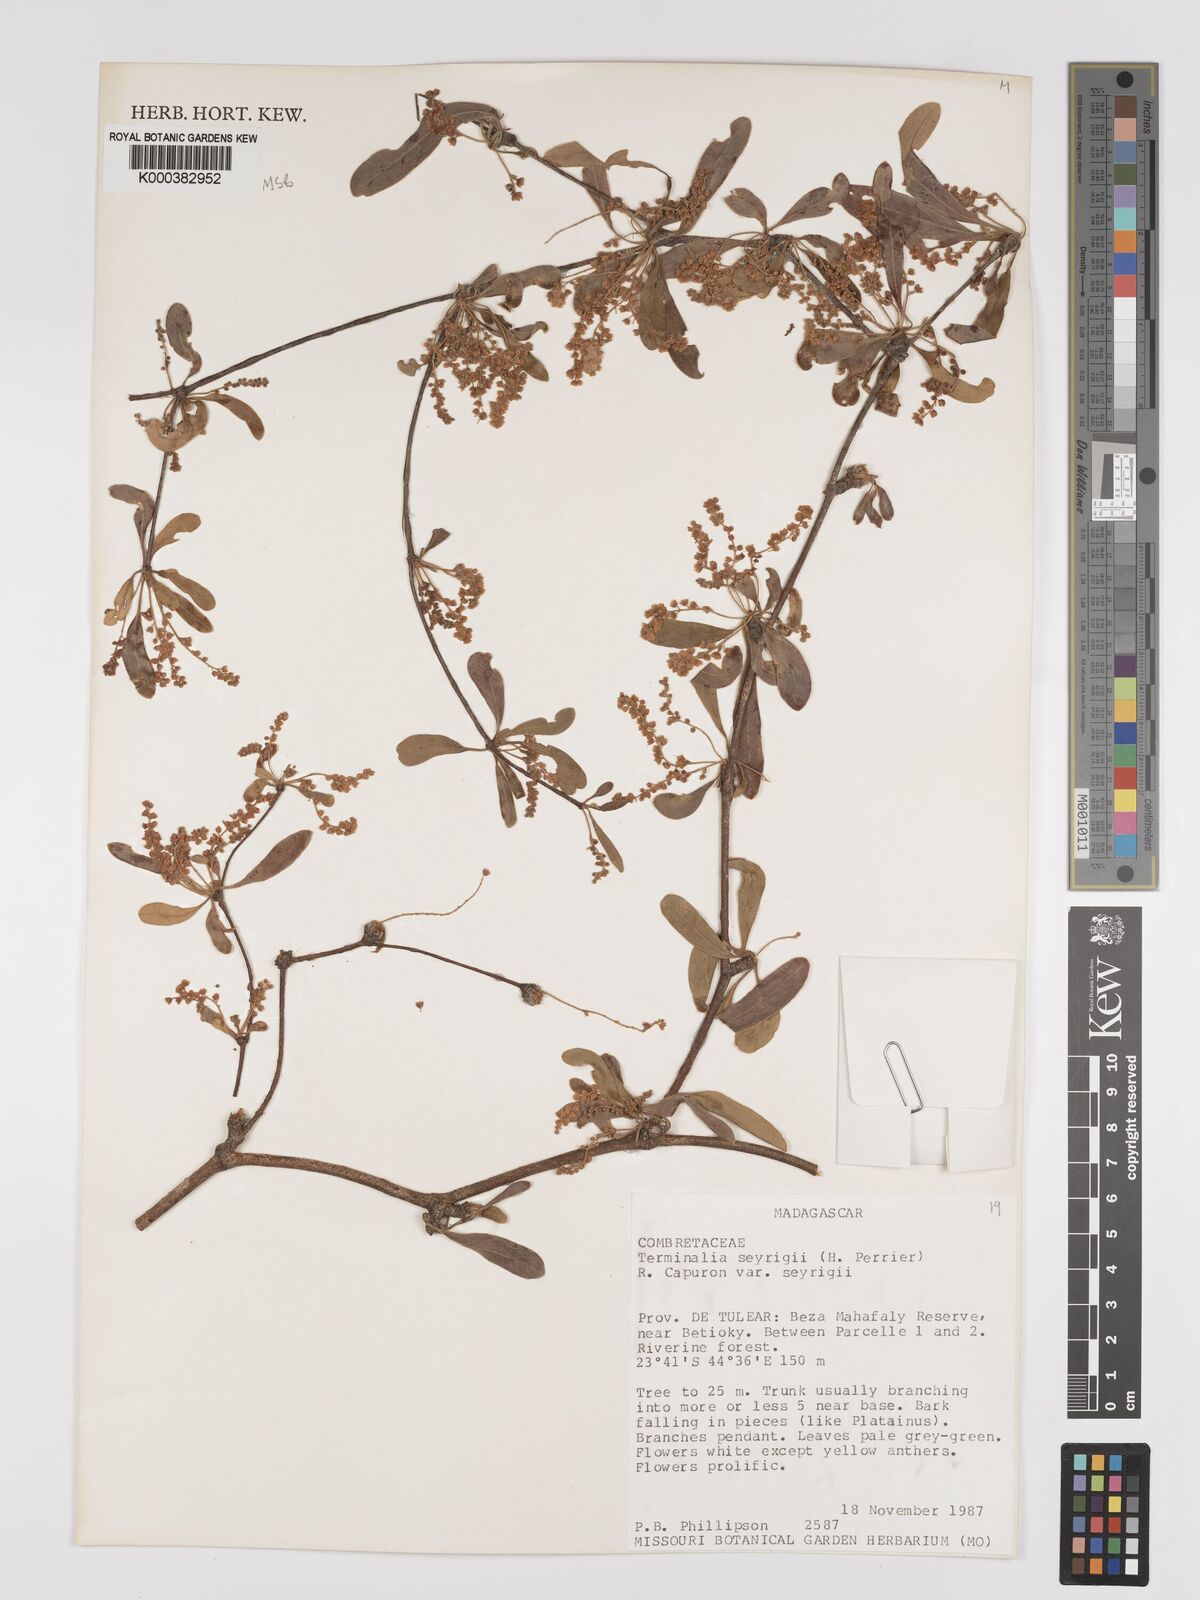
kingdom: Plantae
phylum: Tracheophyta
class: Magnoliopsida
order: Myrtales
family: Combretaceae
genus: Terminalia
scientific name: Terminalia
